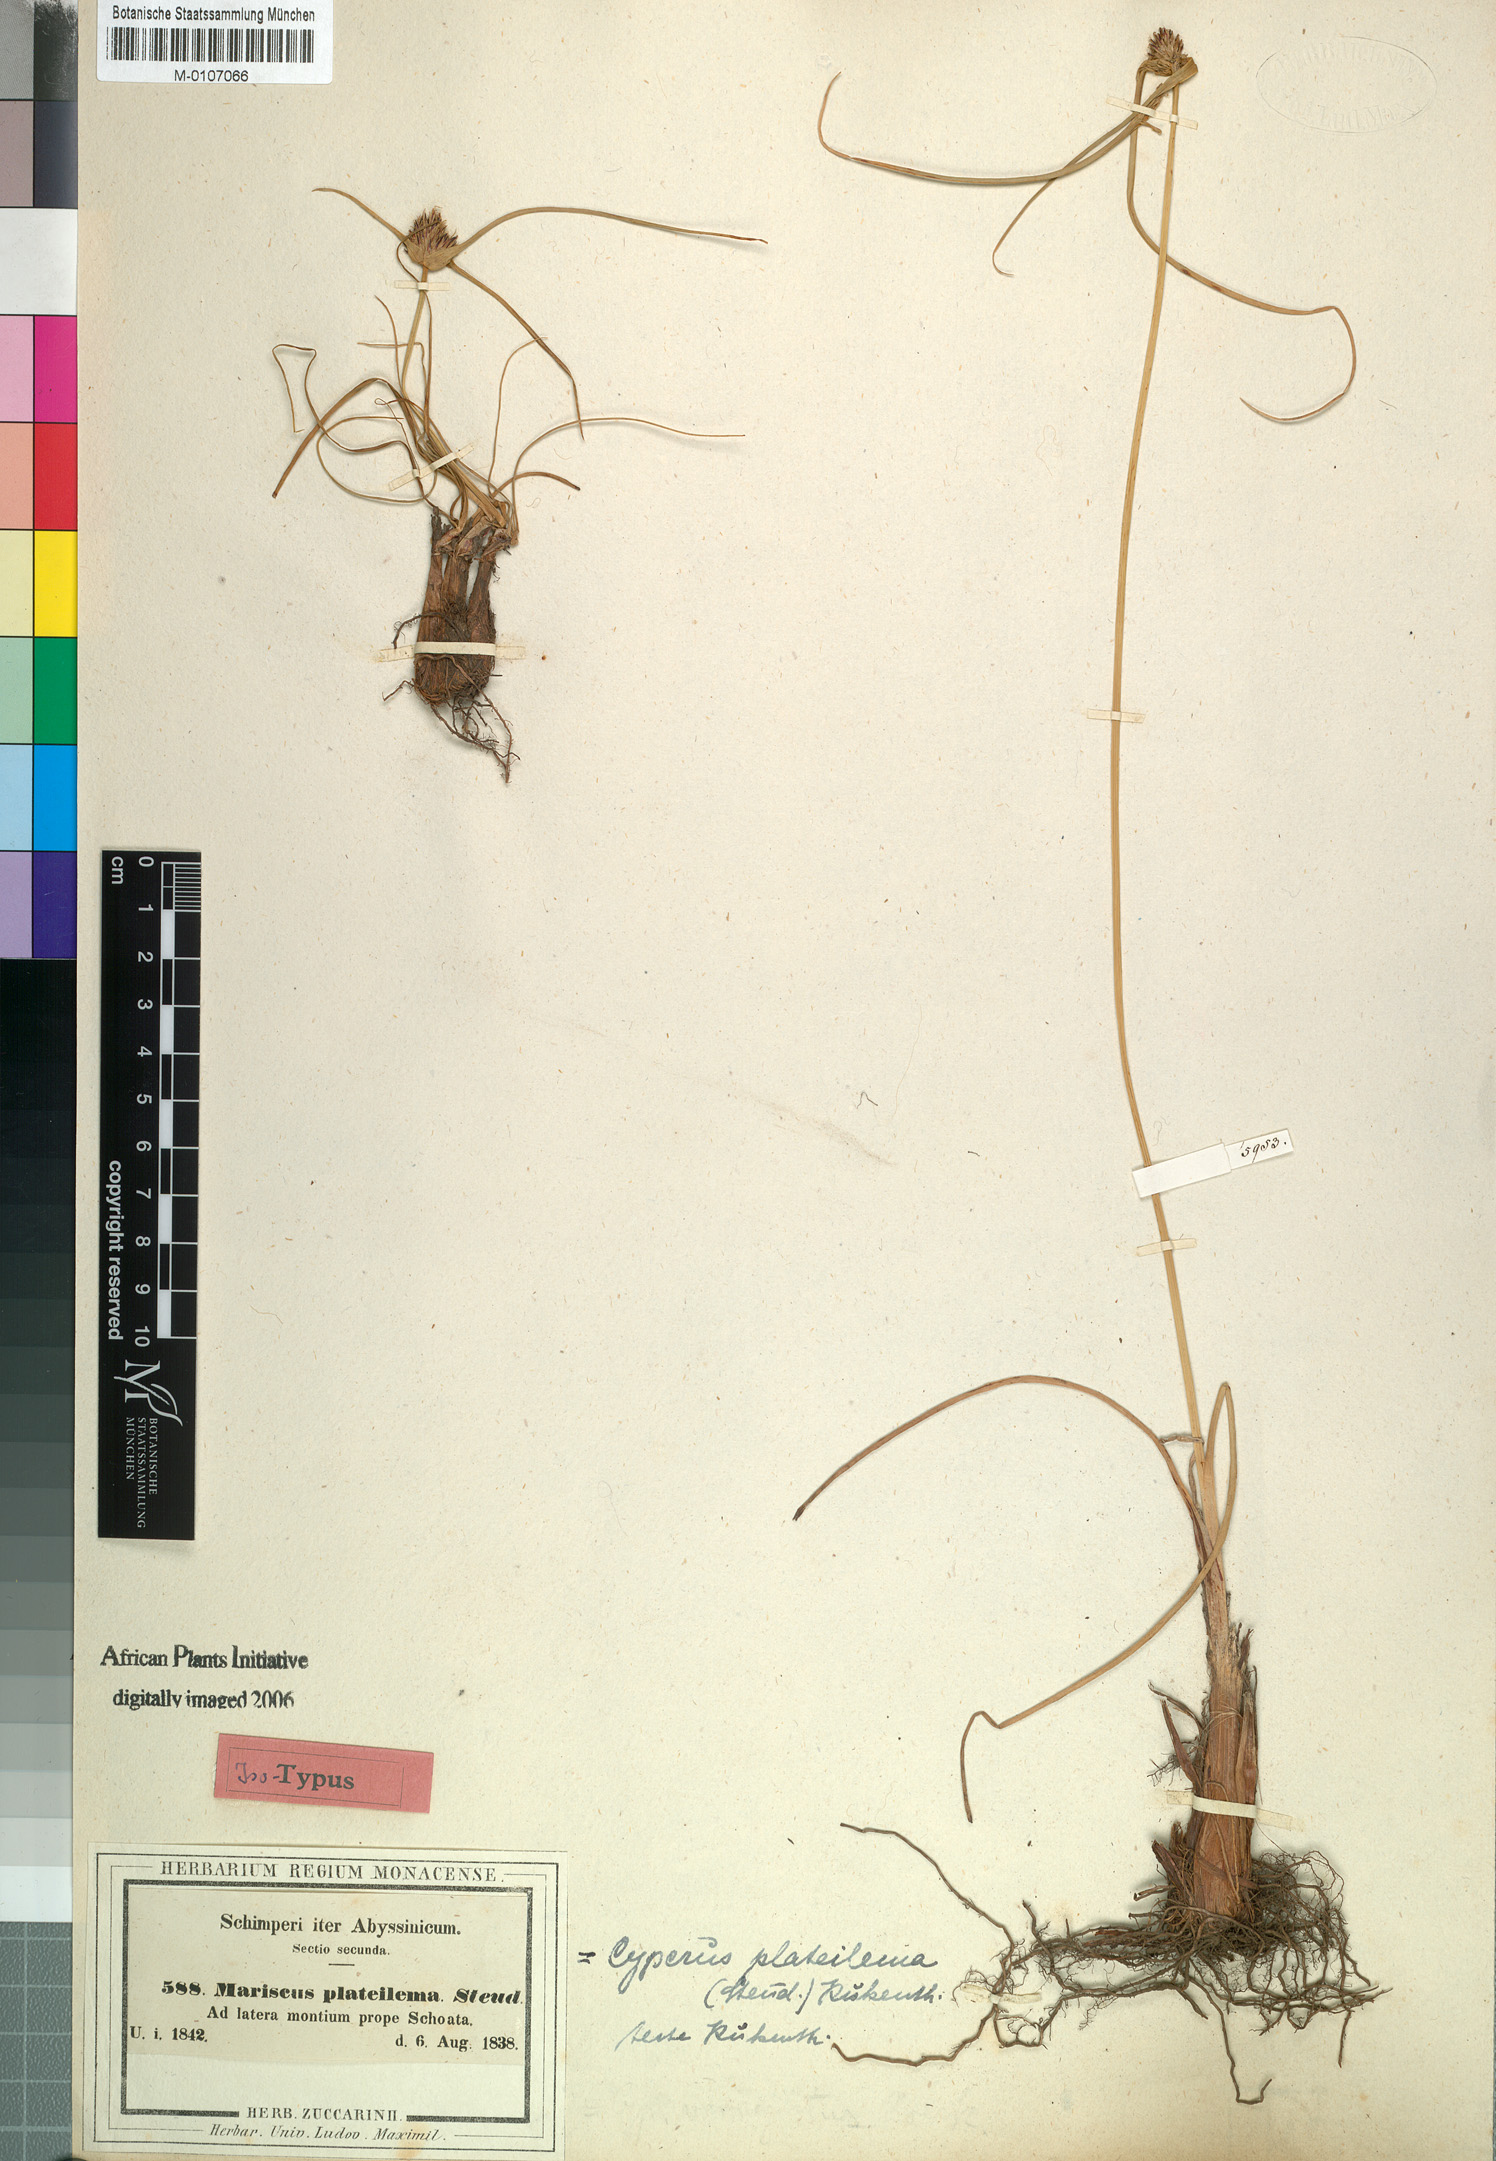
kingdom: Plantae
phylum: Tracheophyta
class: Liliopsida
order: Poales
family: Cyperaceae
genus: Cyperus
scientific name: Cyperus plateilema
